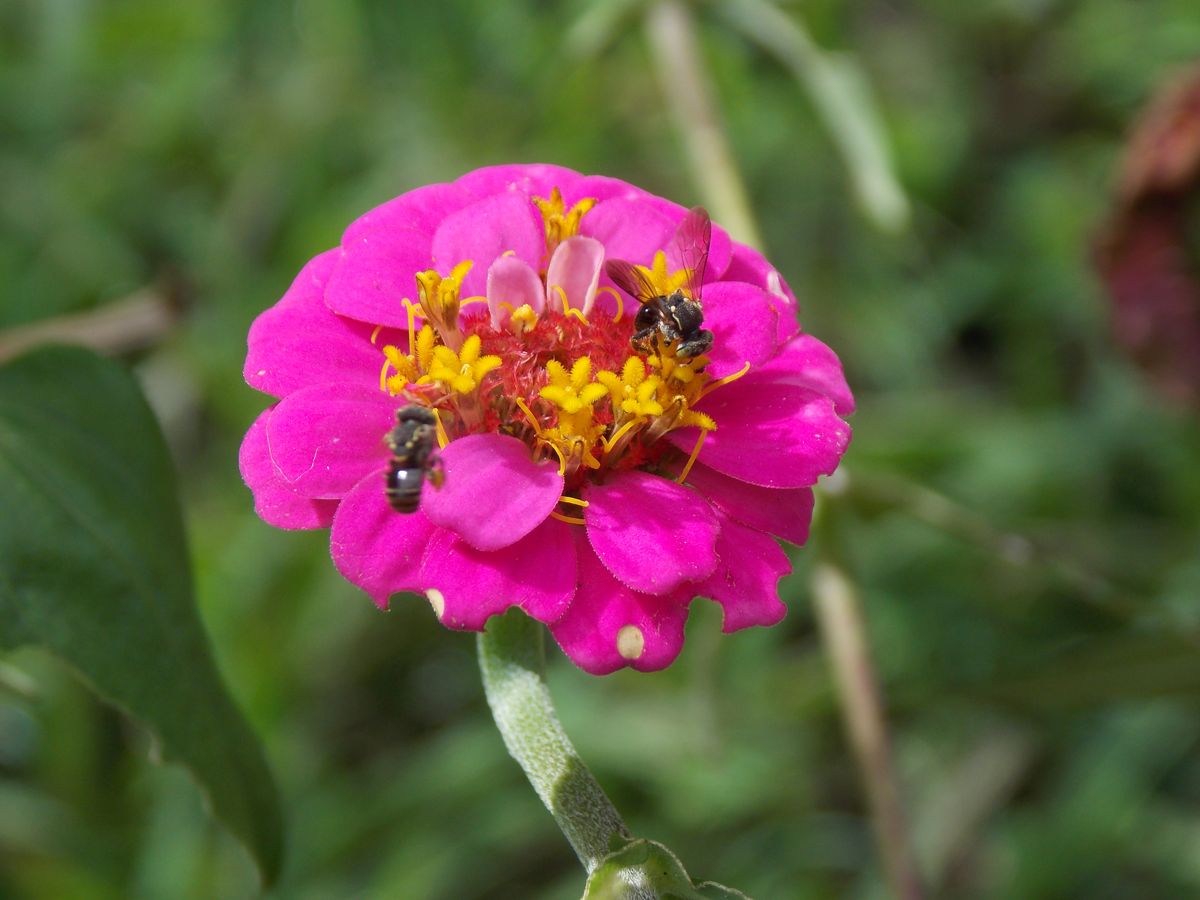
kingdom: Plantae
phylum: Tracheophyta
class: Magnoliopsida
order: Asterales
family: Asteraceae
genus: Zinnia
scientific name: Zinnia elegans
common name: Youth-and-age
